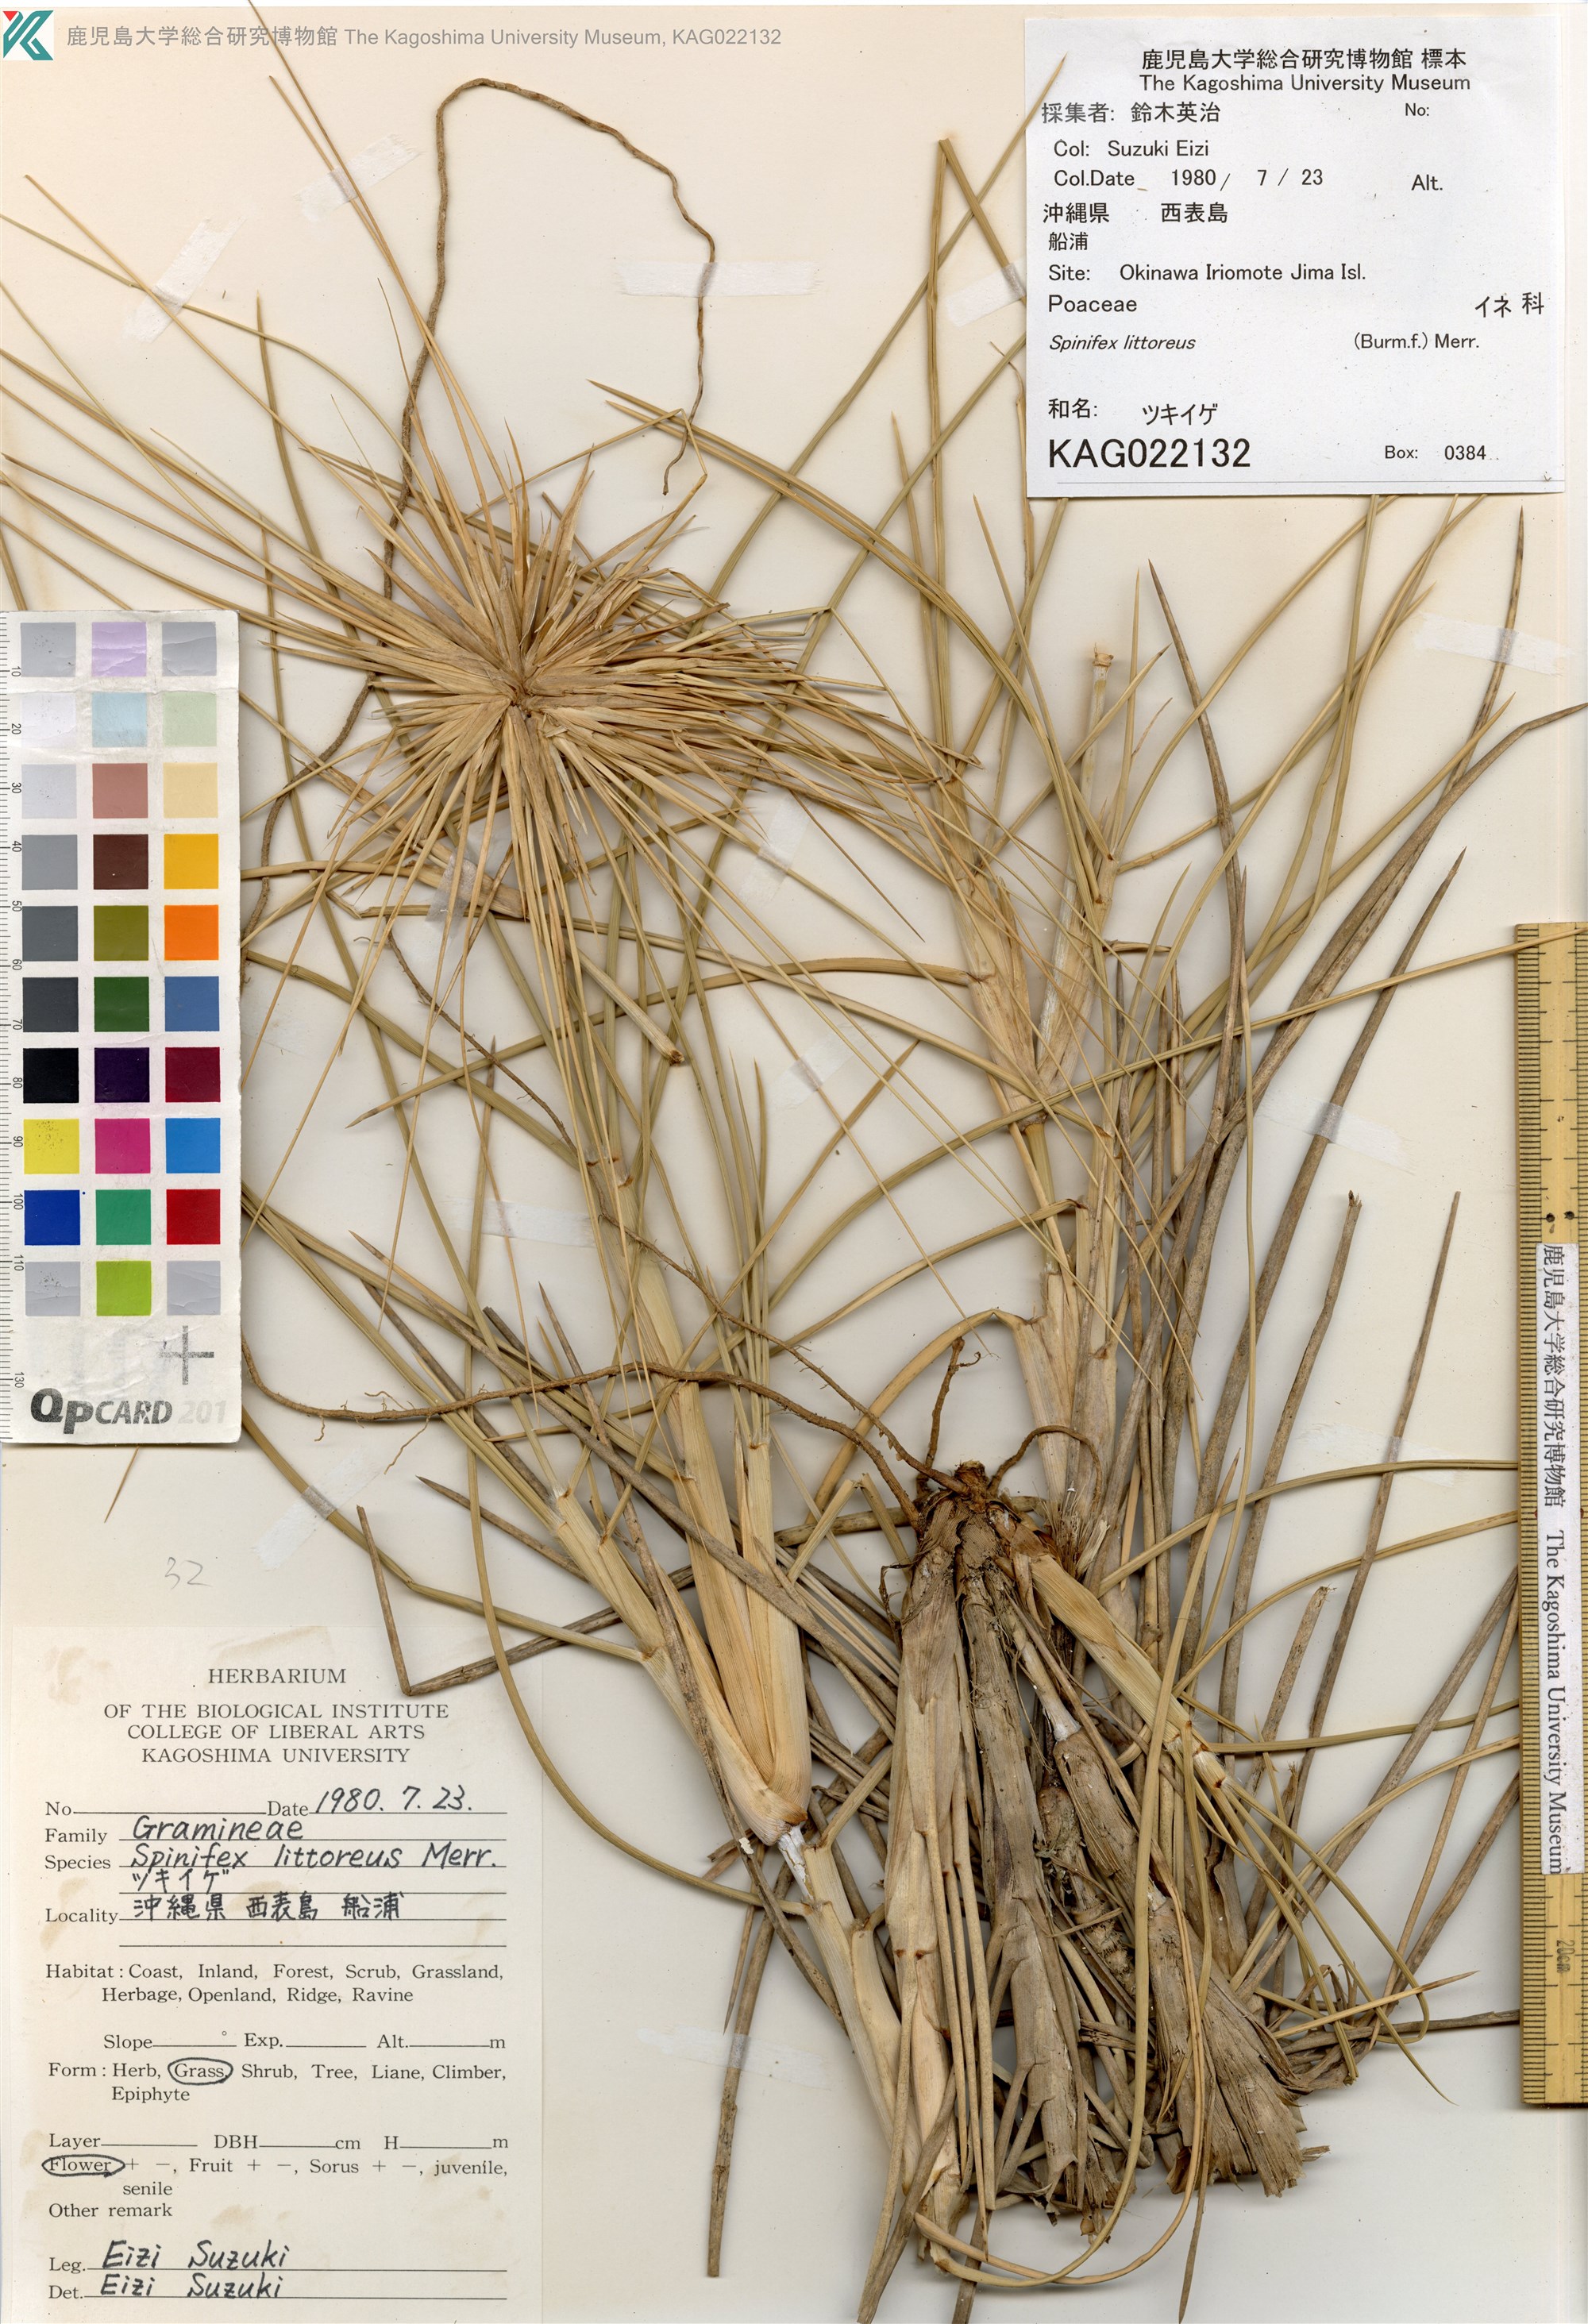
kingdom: Plantae
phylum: Tracheophyta
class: Liliopsida
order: Poales
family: Poaceae
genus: Spinifex
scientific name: Spinifex littoreus
